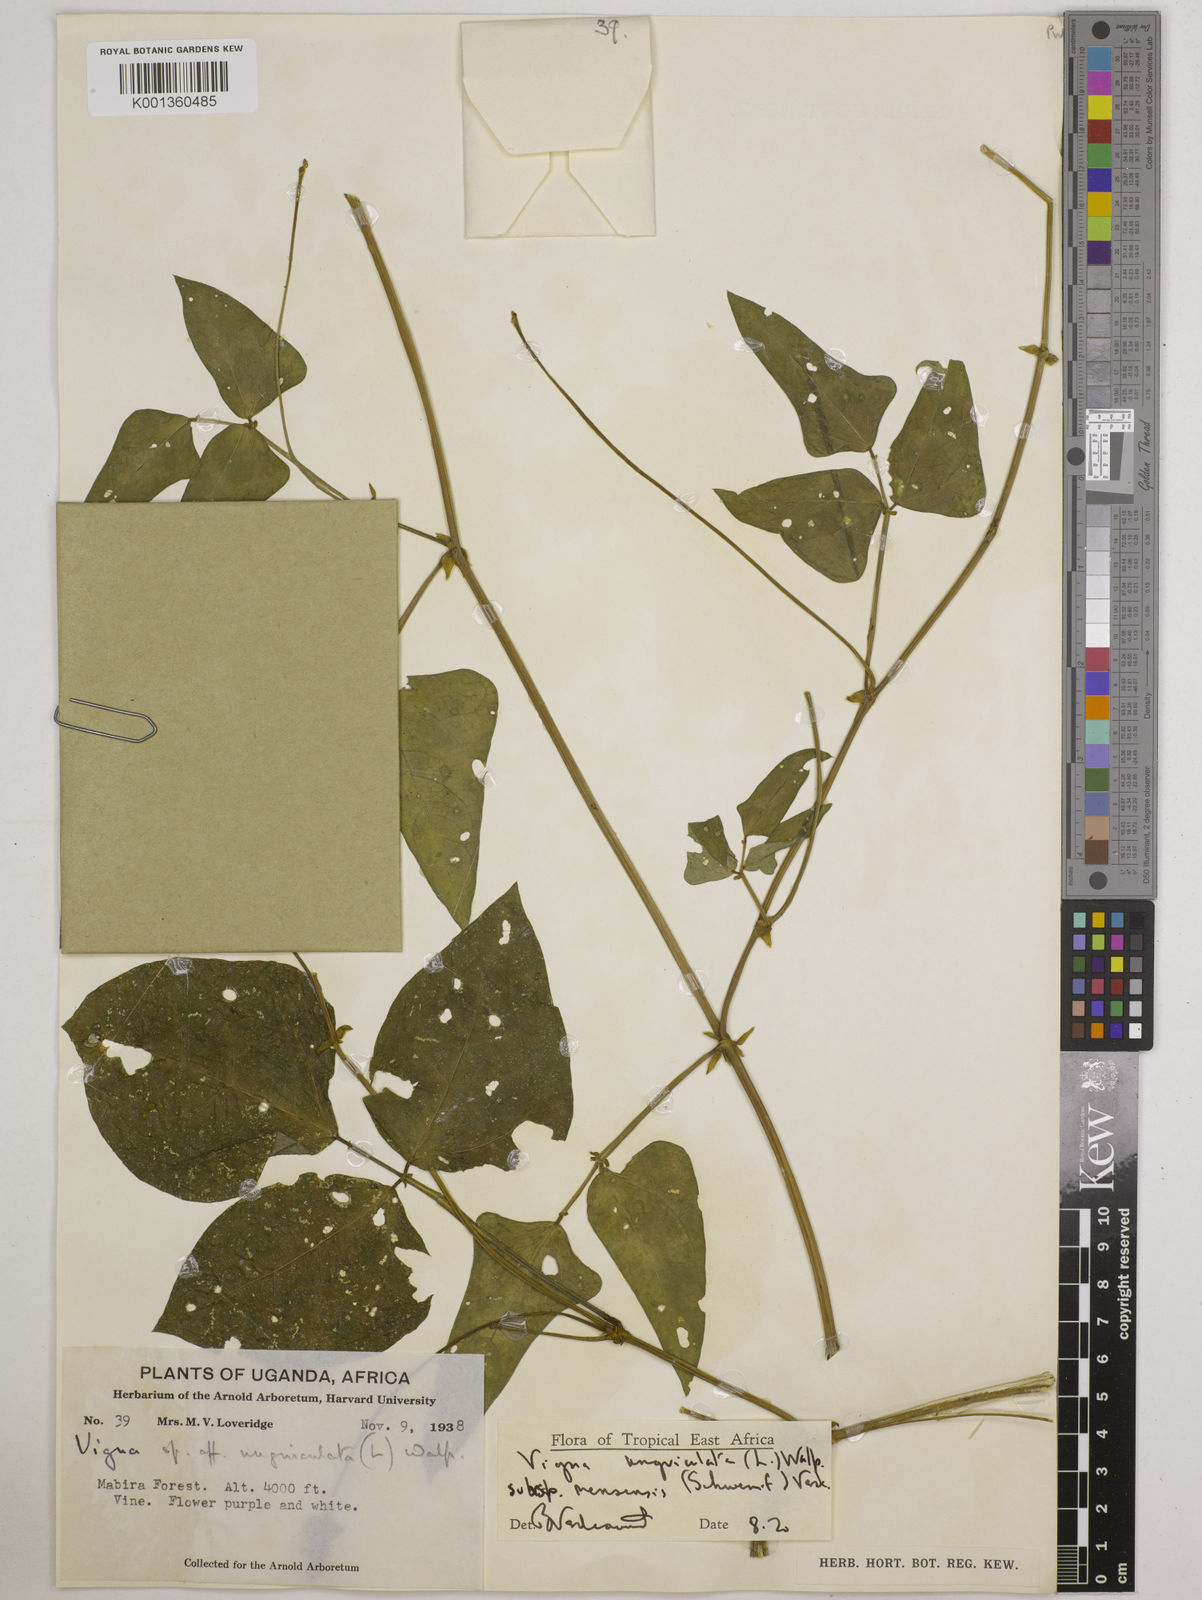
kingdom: Plantae
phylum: Tracheophyta
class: Magnoliopsida
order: Fabales
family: Fabaceae
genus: Vigna
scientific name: Vigna unguiculata
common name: Cowpea
